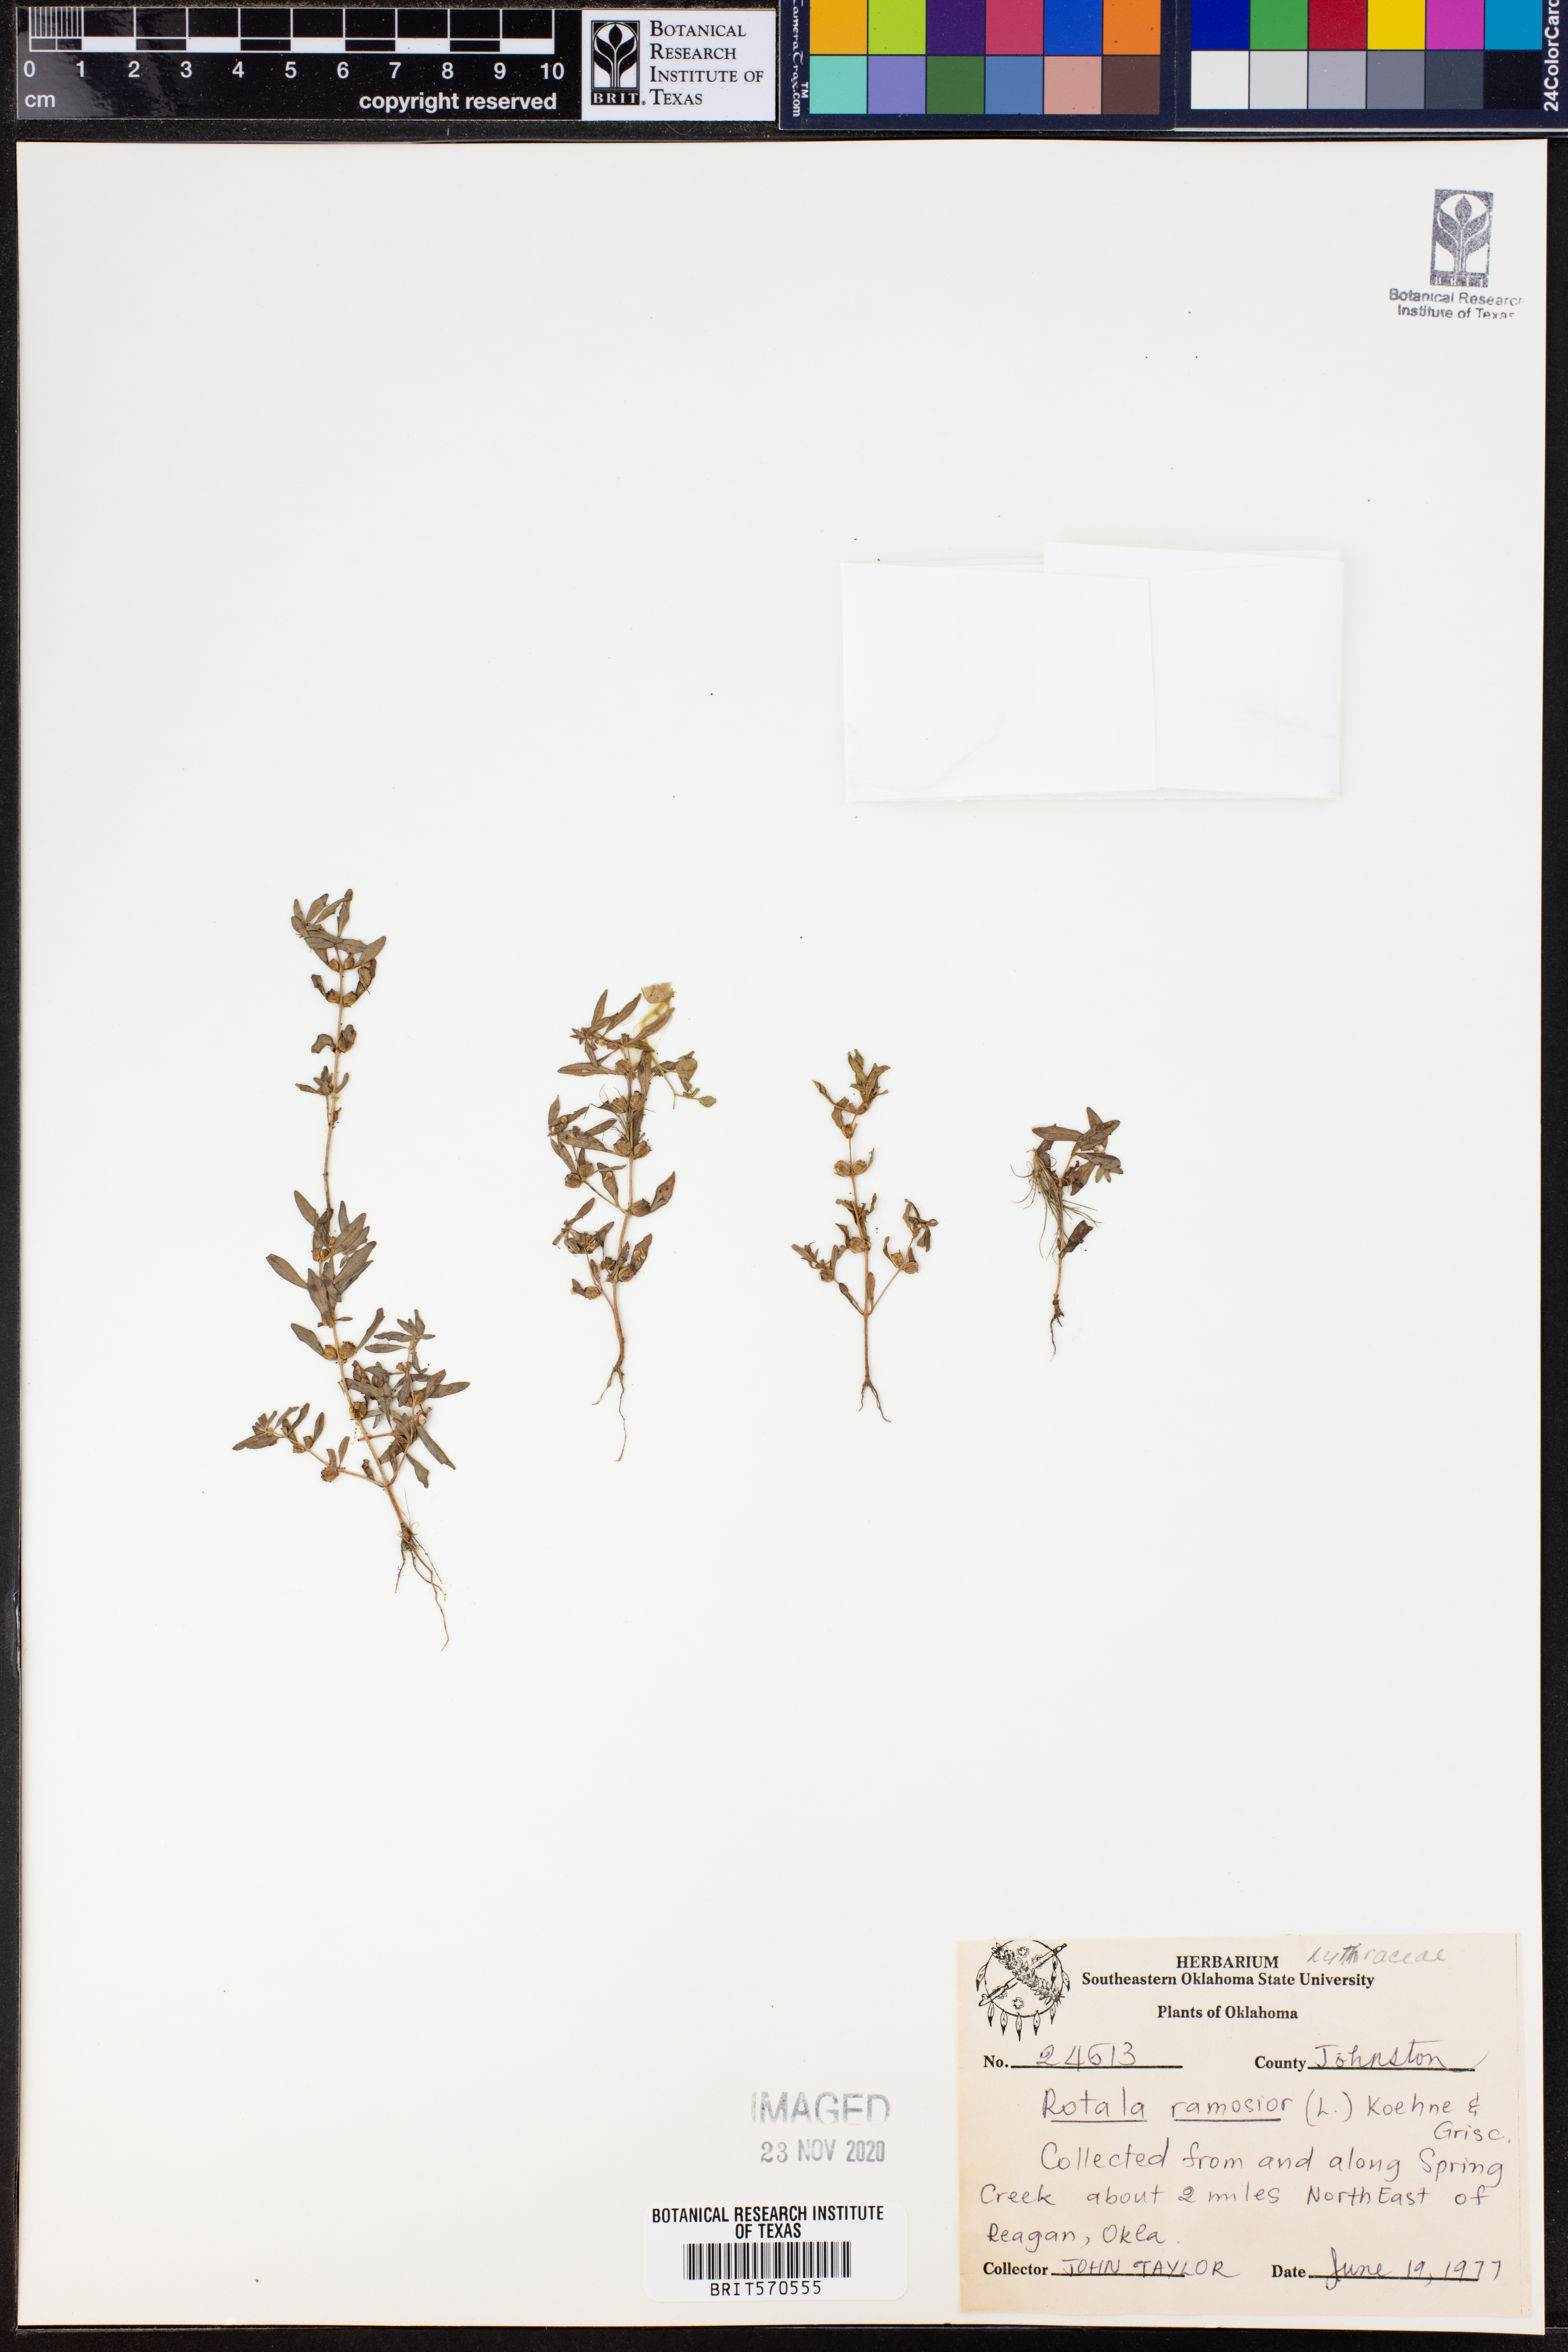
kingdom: Plantae
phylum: Tracheophyta
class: Magnoliopsida
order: Myrtales
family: Lythraceae
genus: Rotala
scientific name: Rotala ramosior
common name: Lowland rotala
